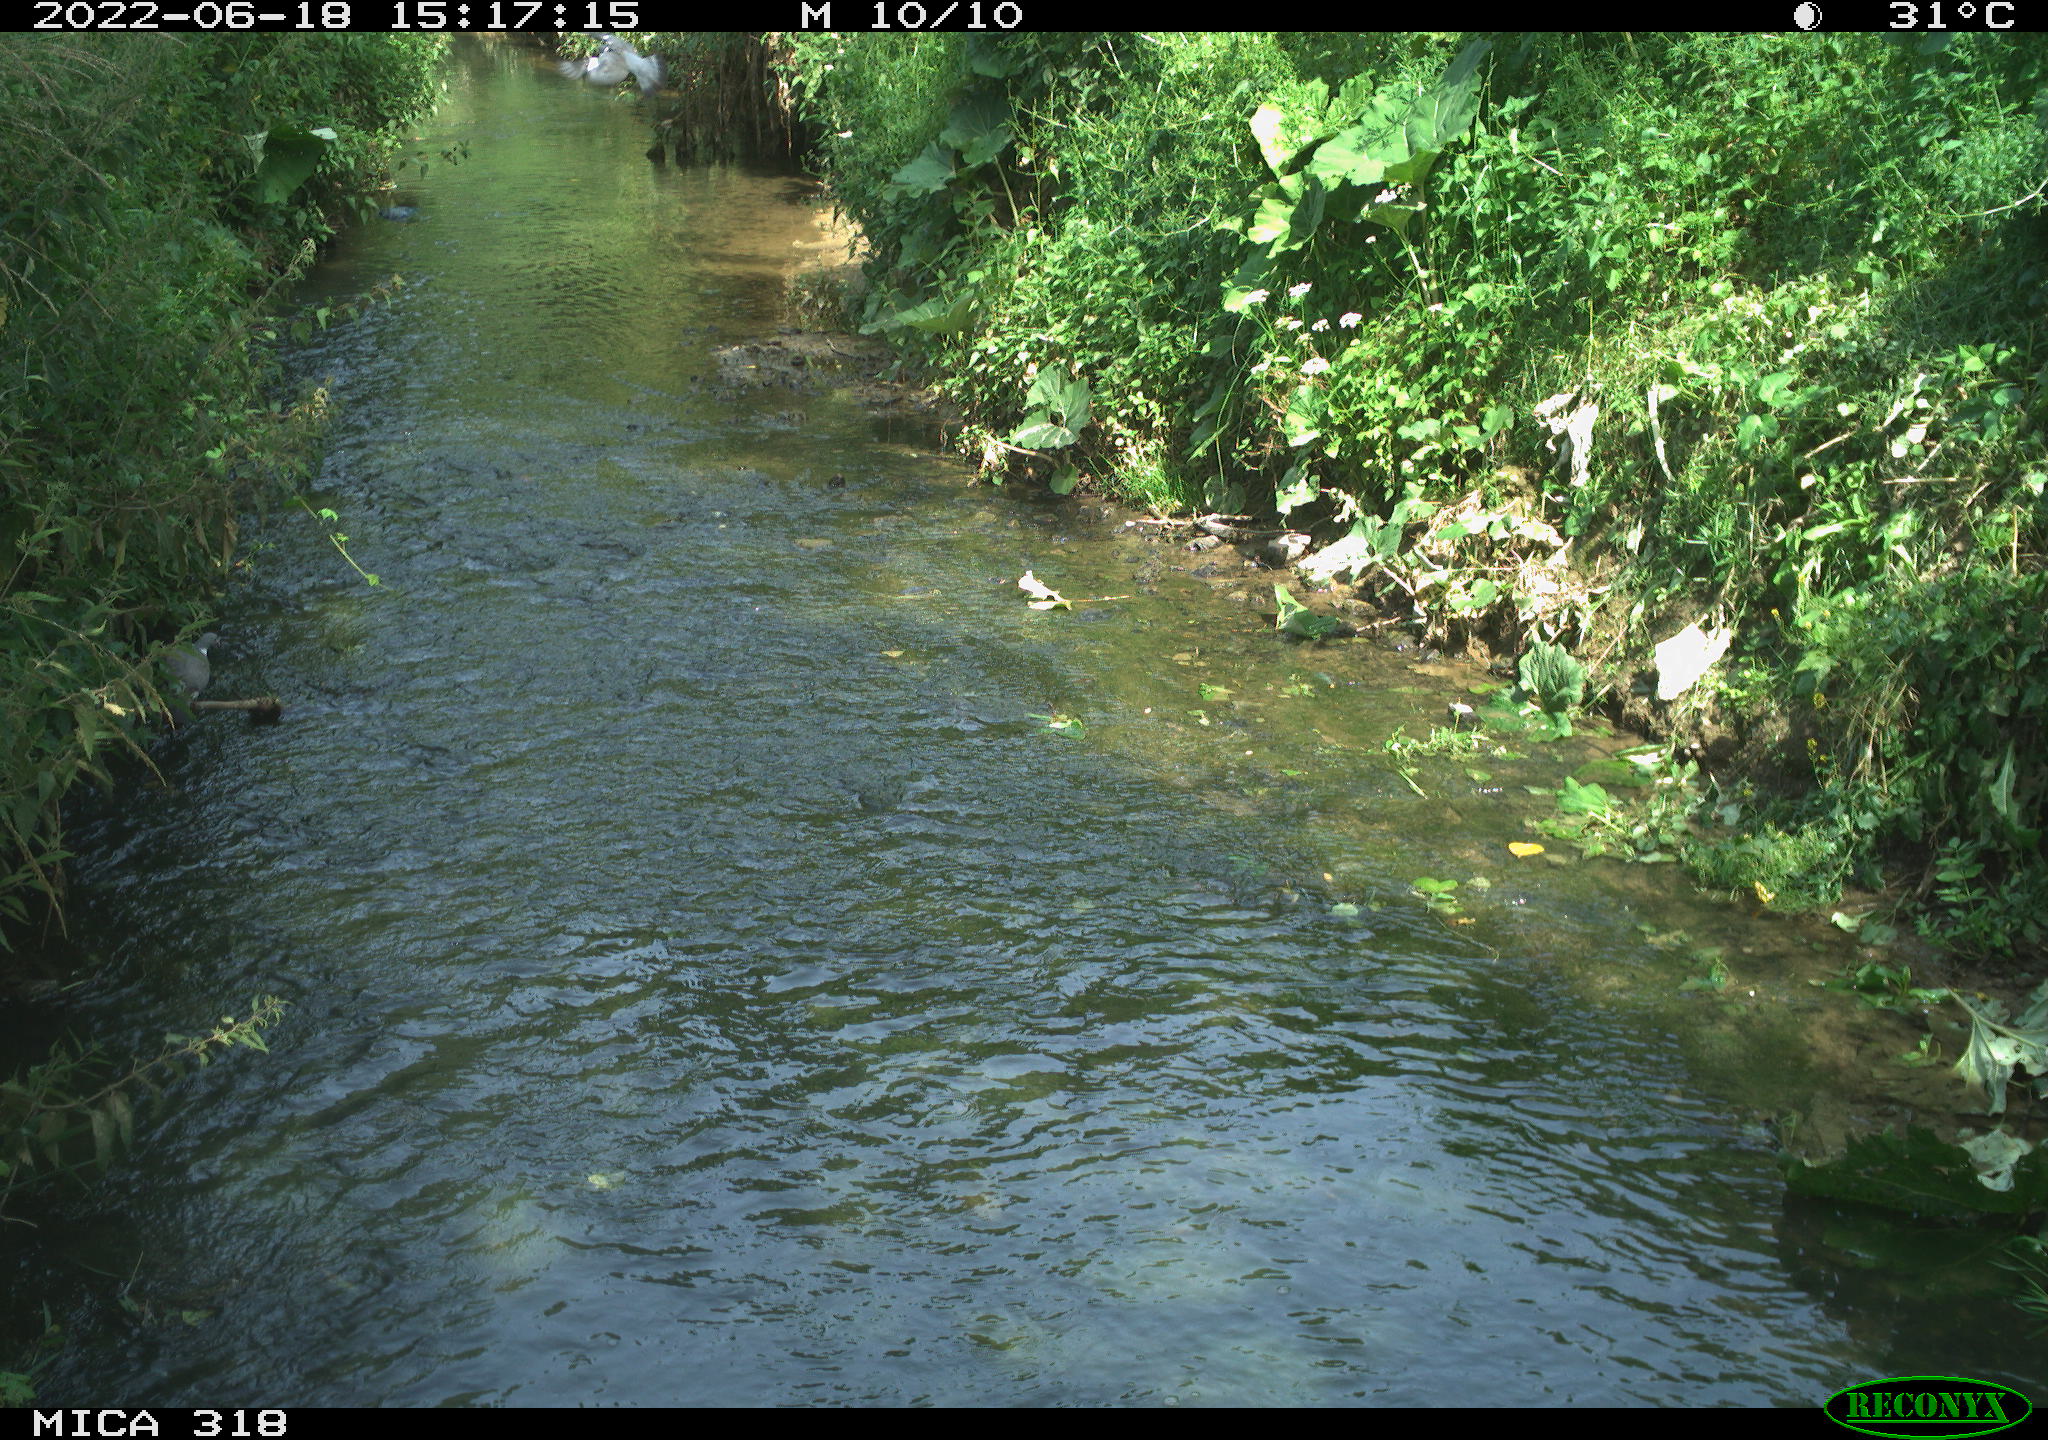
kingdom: Animalia
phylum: Chordata
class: Aves
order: Columbiformes
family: Columbidae
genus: Columba
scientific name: Columba palumbus
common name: Common wood pigeon
